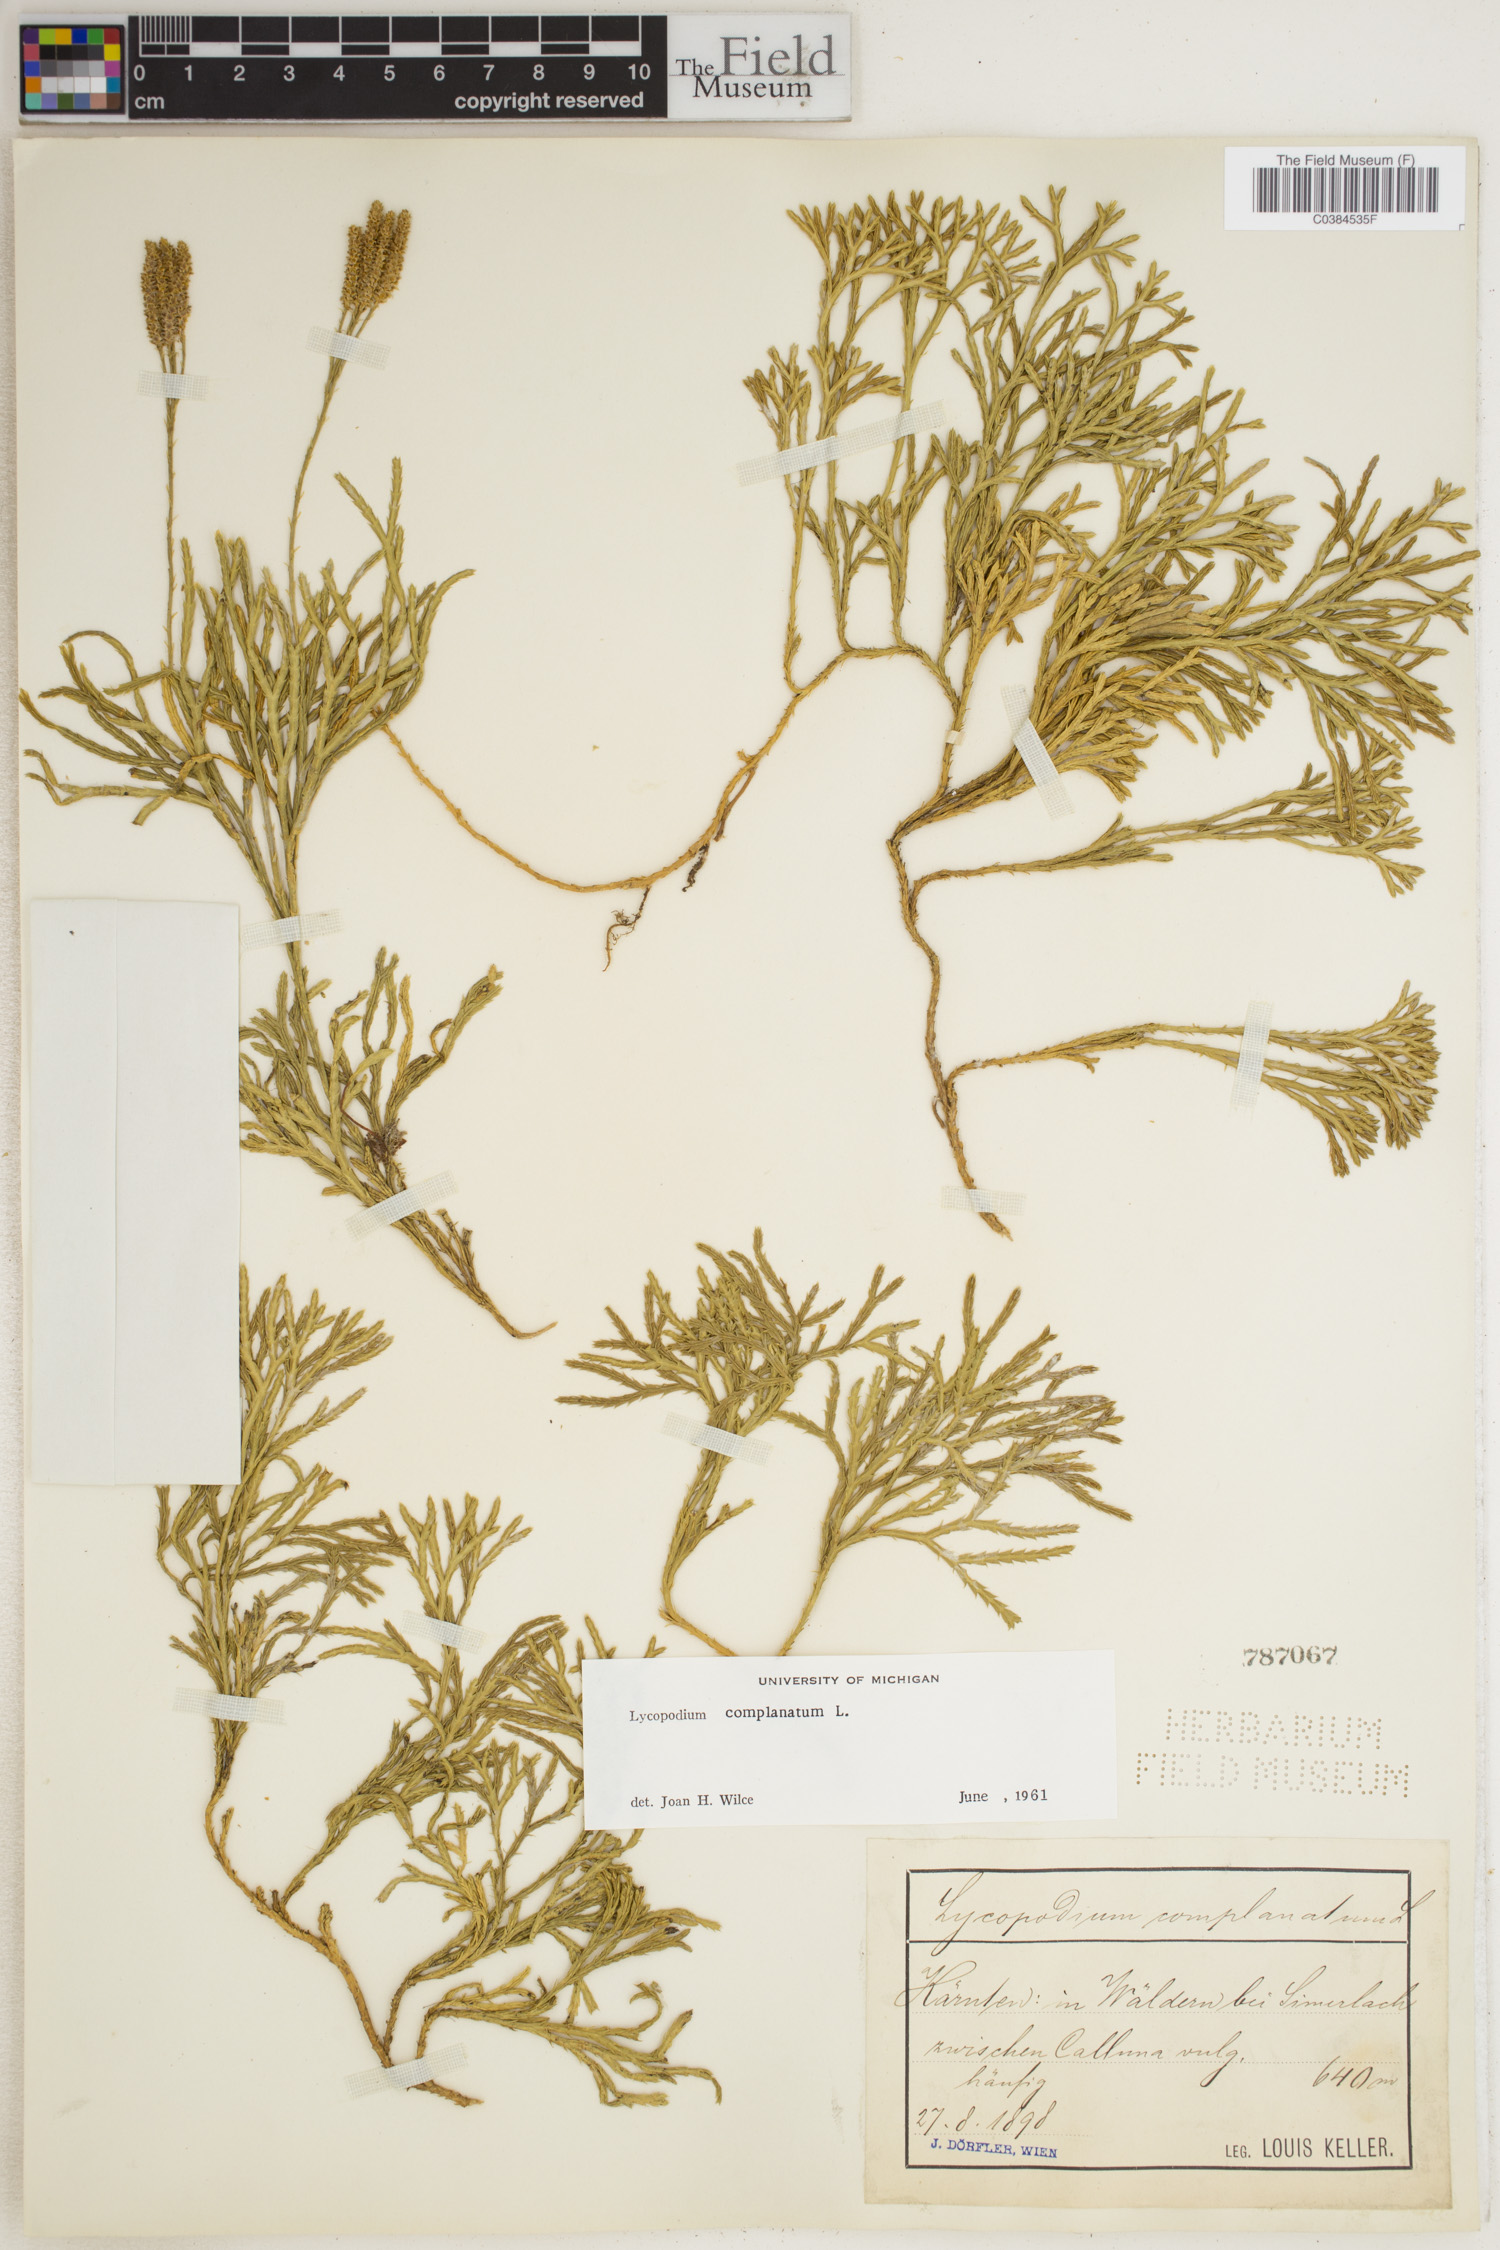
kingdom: Plantae
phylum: Tracheophyta
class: Lycopodiopsida
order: Lycopodiales
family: Lycopodiaceae
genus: Diphasiastrum
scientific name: Diphasiastrum complanatum
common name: Northern running-pine
